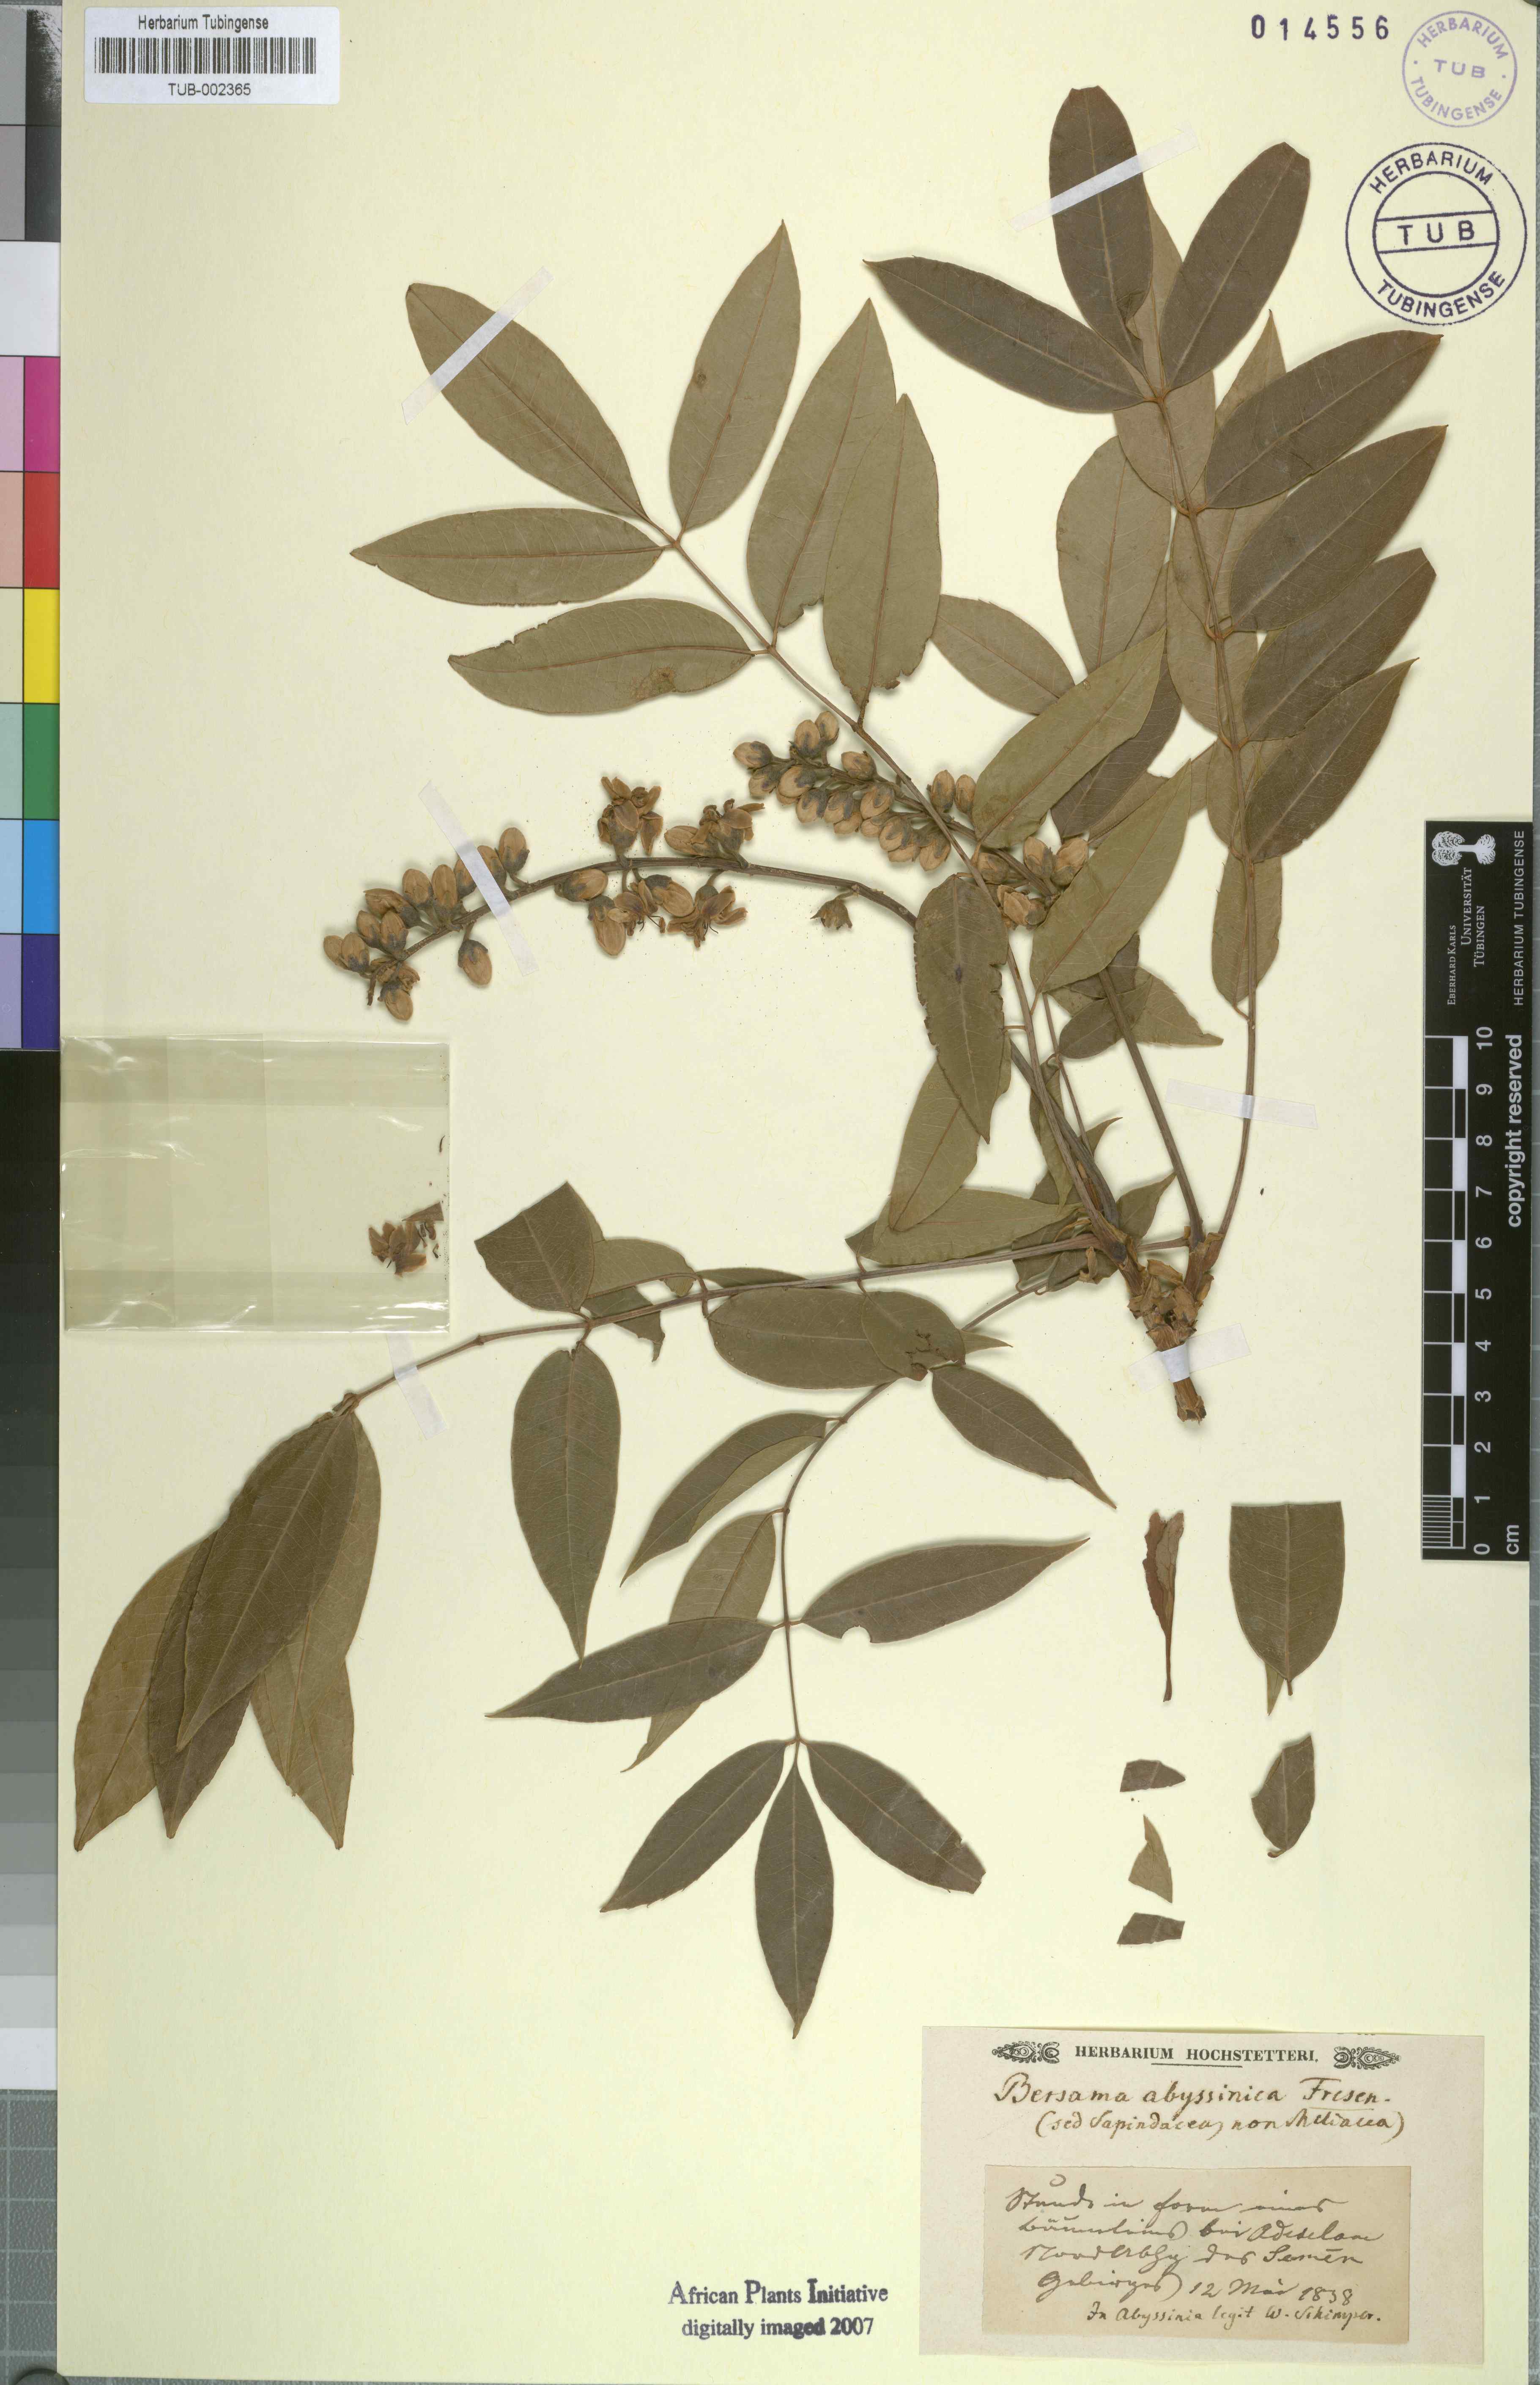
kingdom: Plantae
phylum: Tracheophyta
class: Magnoliopsida
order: Geraniales
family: Melianthaceae
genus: Bersama
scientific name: Bersama abyssinica
